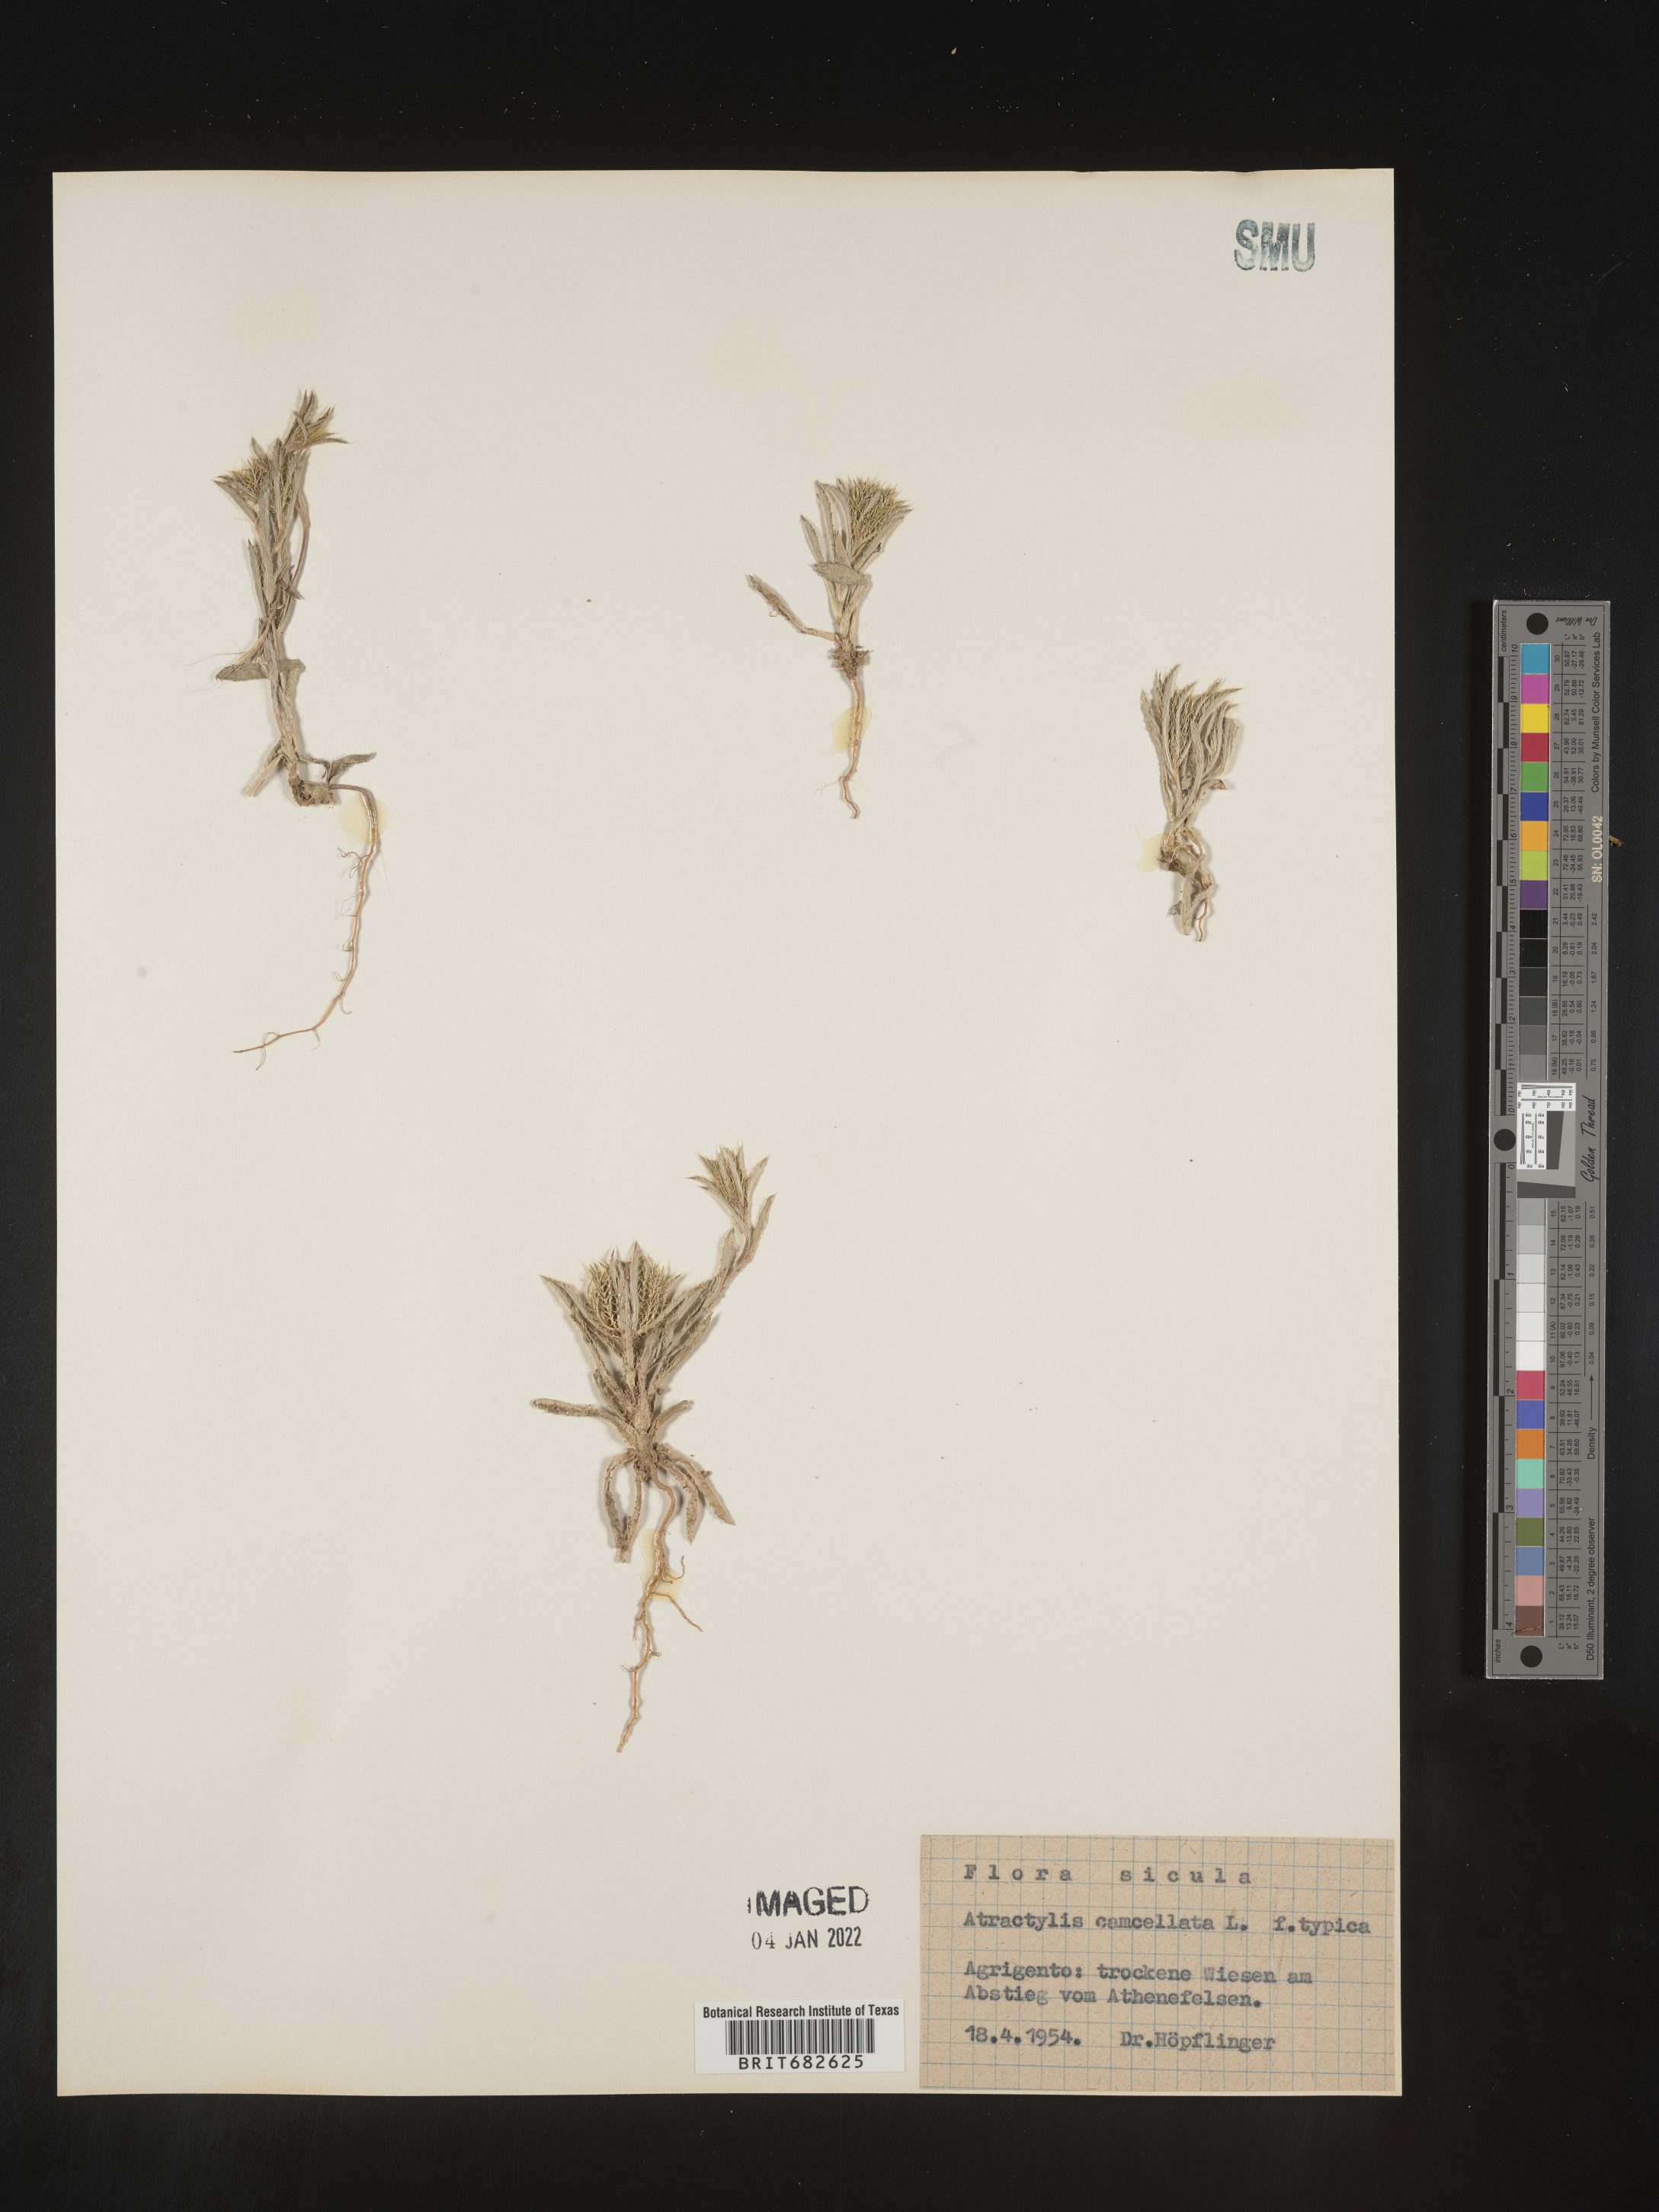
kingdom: Plantae
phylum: Tracheophyta
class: Magnoliopsida
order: Asterales
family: Asteraceae
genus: Atractylis
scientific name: Atractylis
